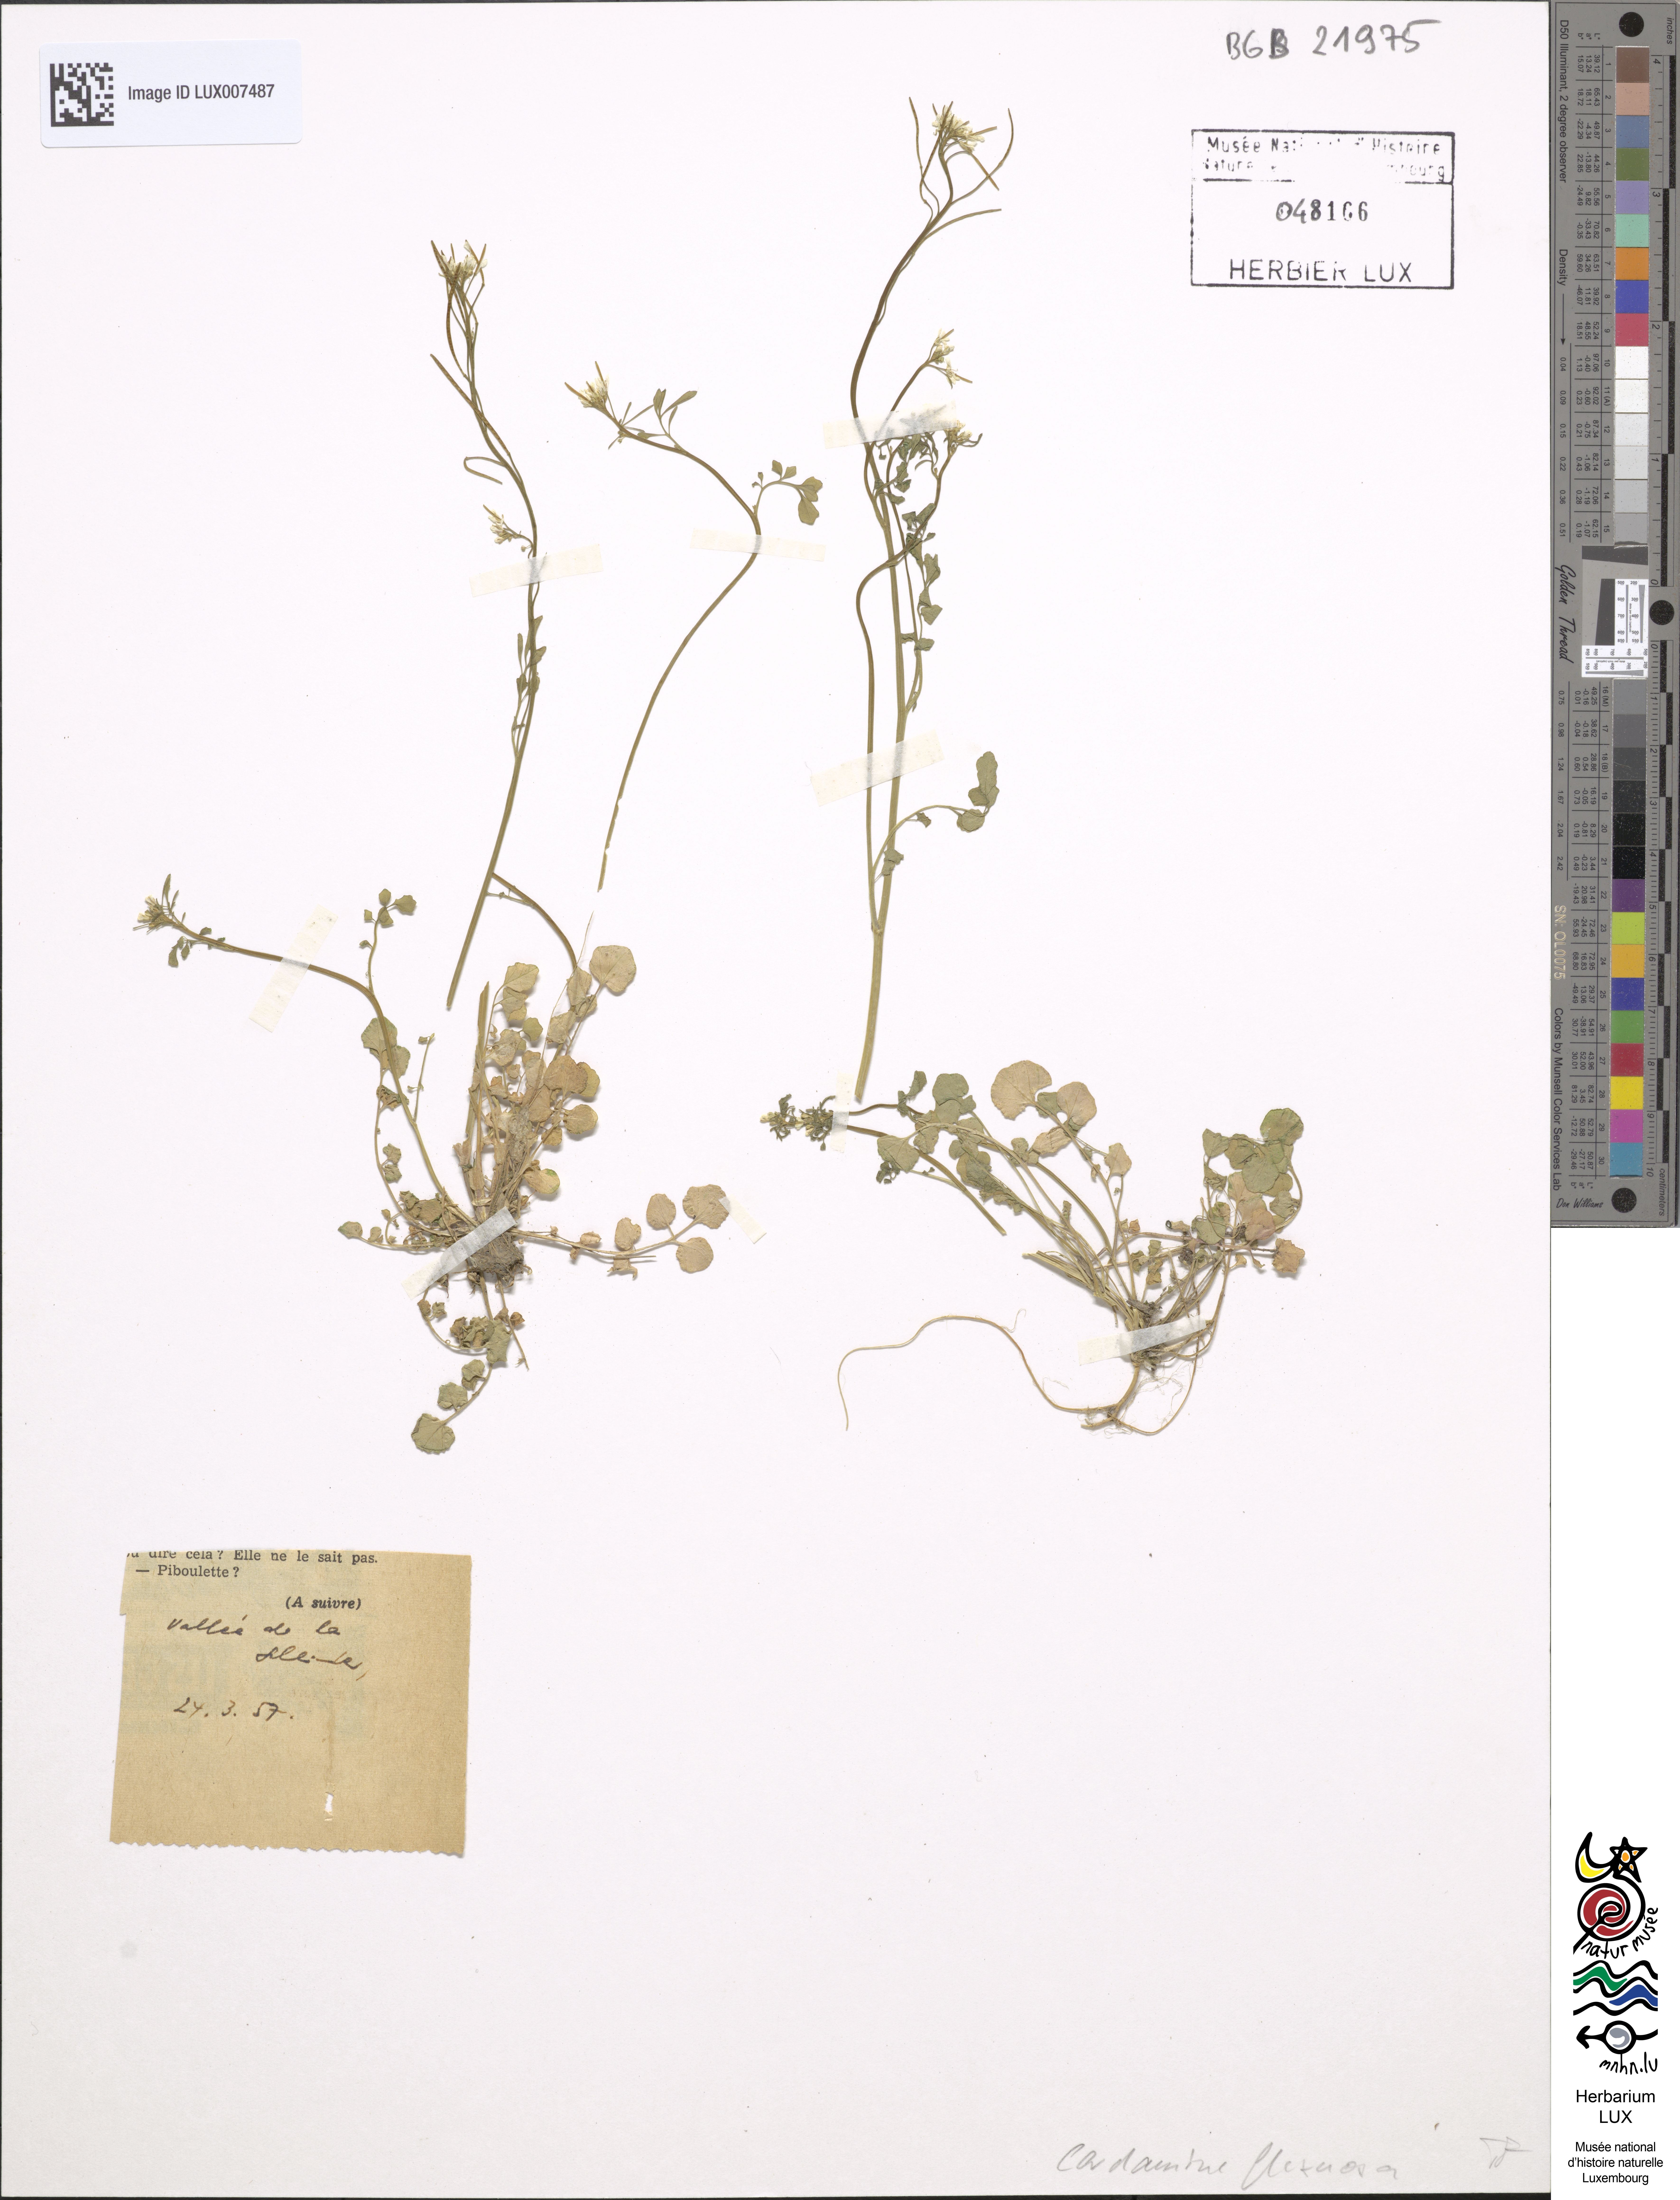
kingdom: Plantae
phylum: Tracheophyta
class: Magnoliopsida
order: Brassicales
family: Brassicaceae
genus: Cardamine
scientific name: Cardamine flexuosa
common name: Woodland bittercress
